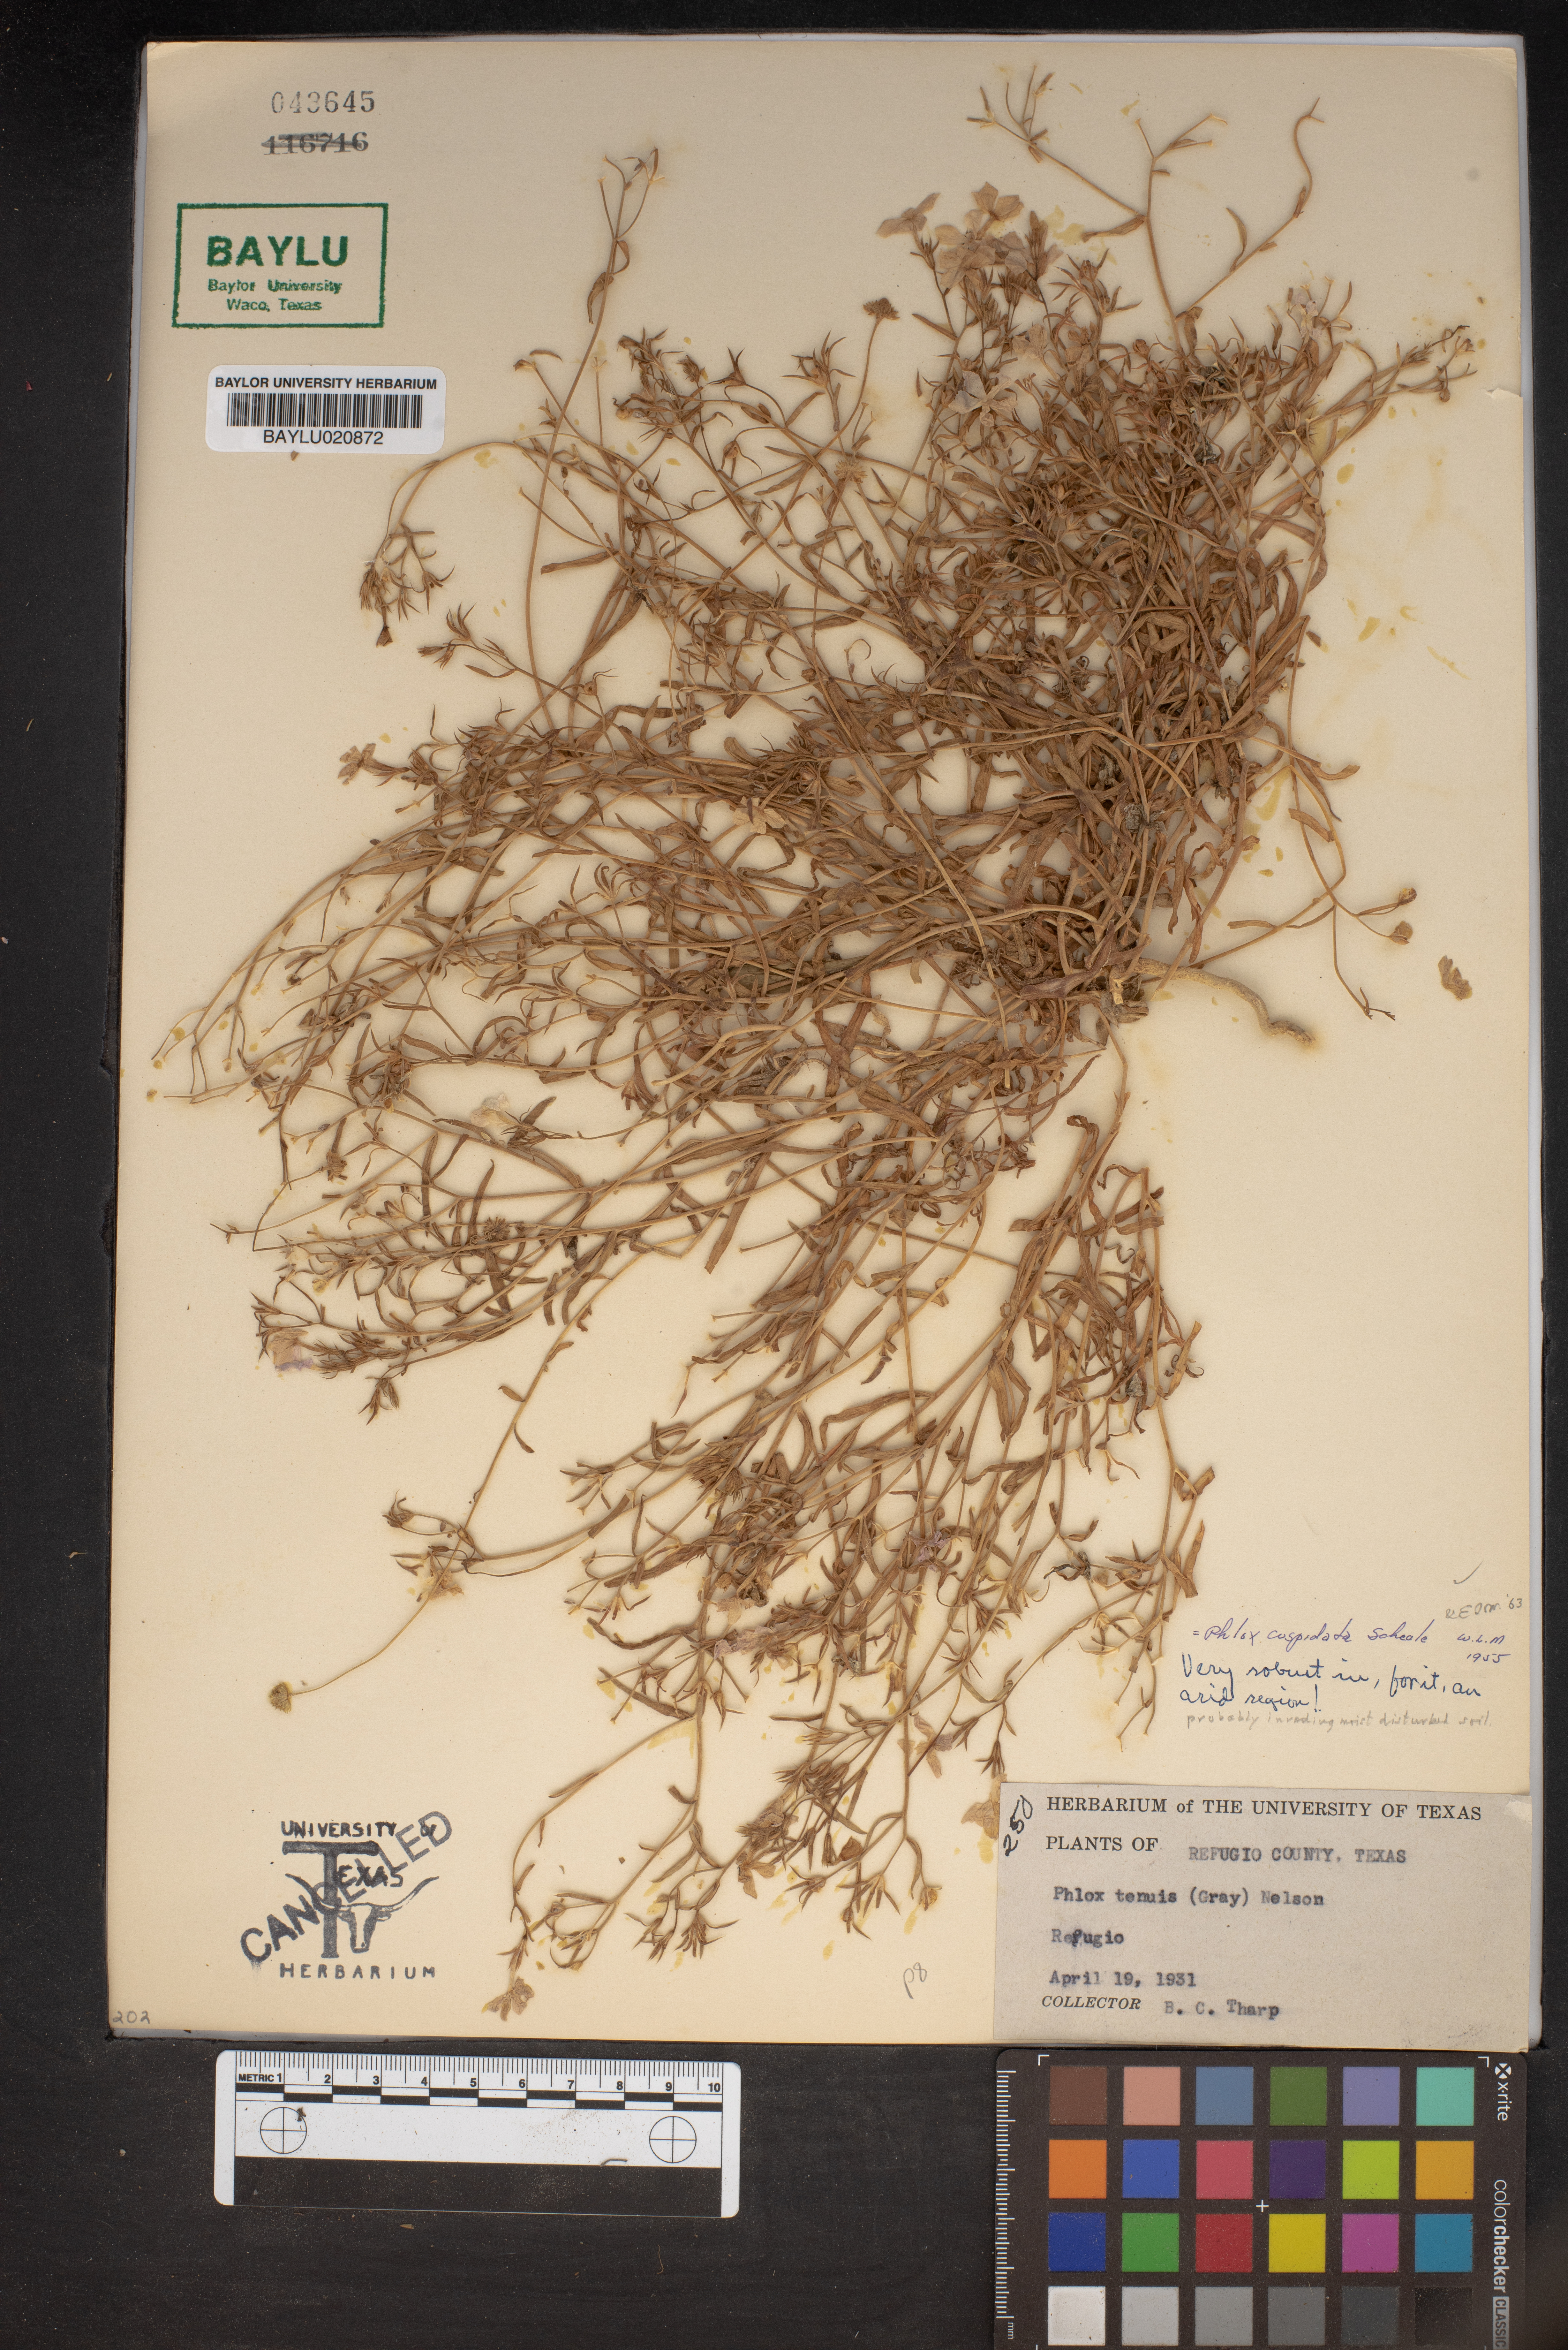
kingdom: Plantae
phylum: Tracheophyta
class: Magnoliopsida
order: Ericales
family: Polemoniaceae
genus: Phlox
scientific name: Phlox cuspidata
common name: Pointed phlox
